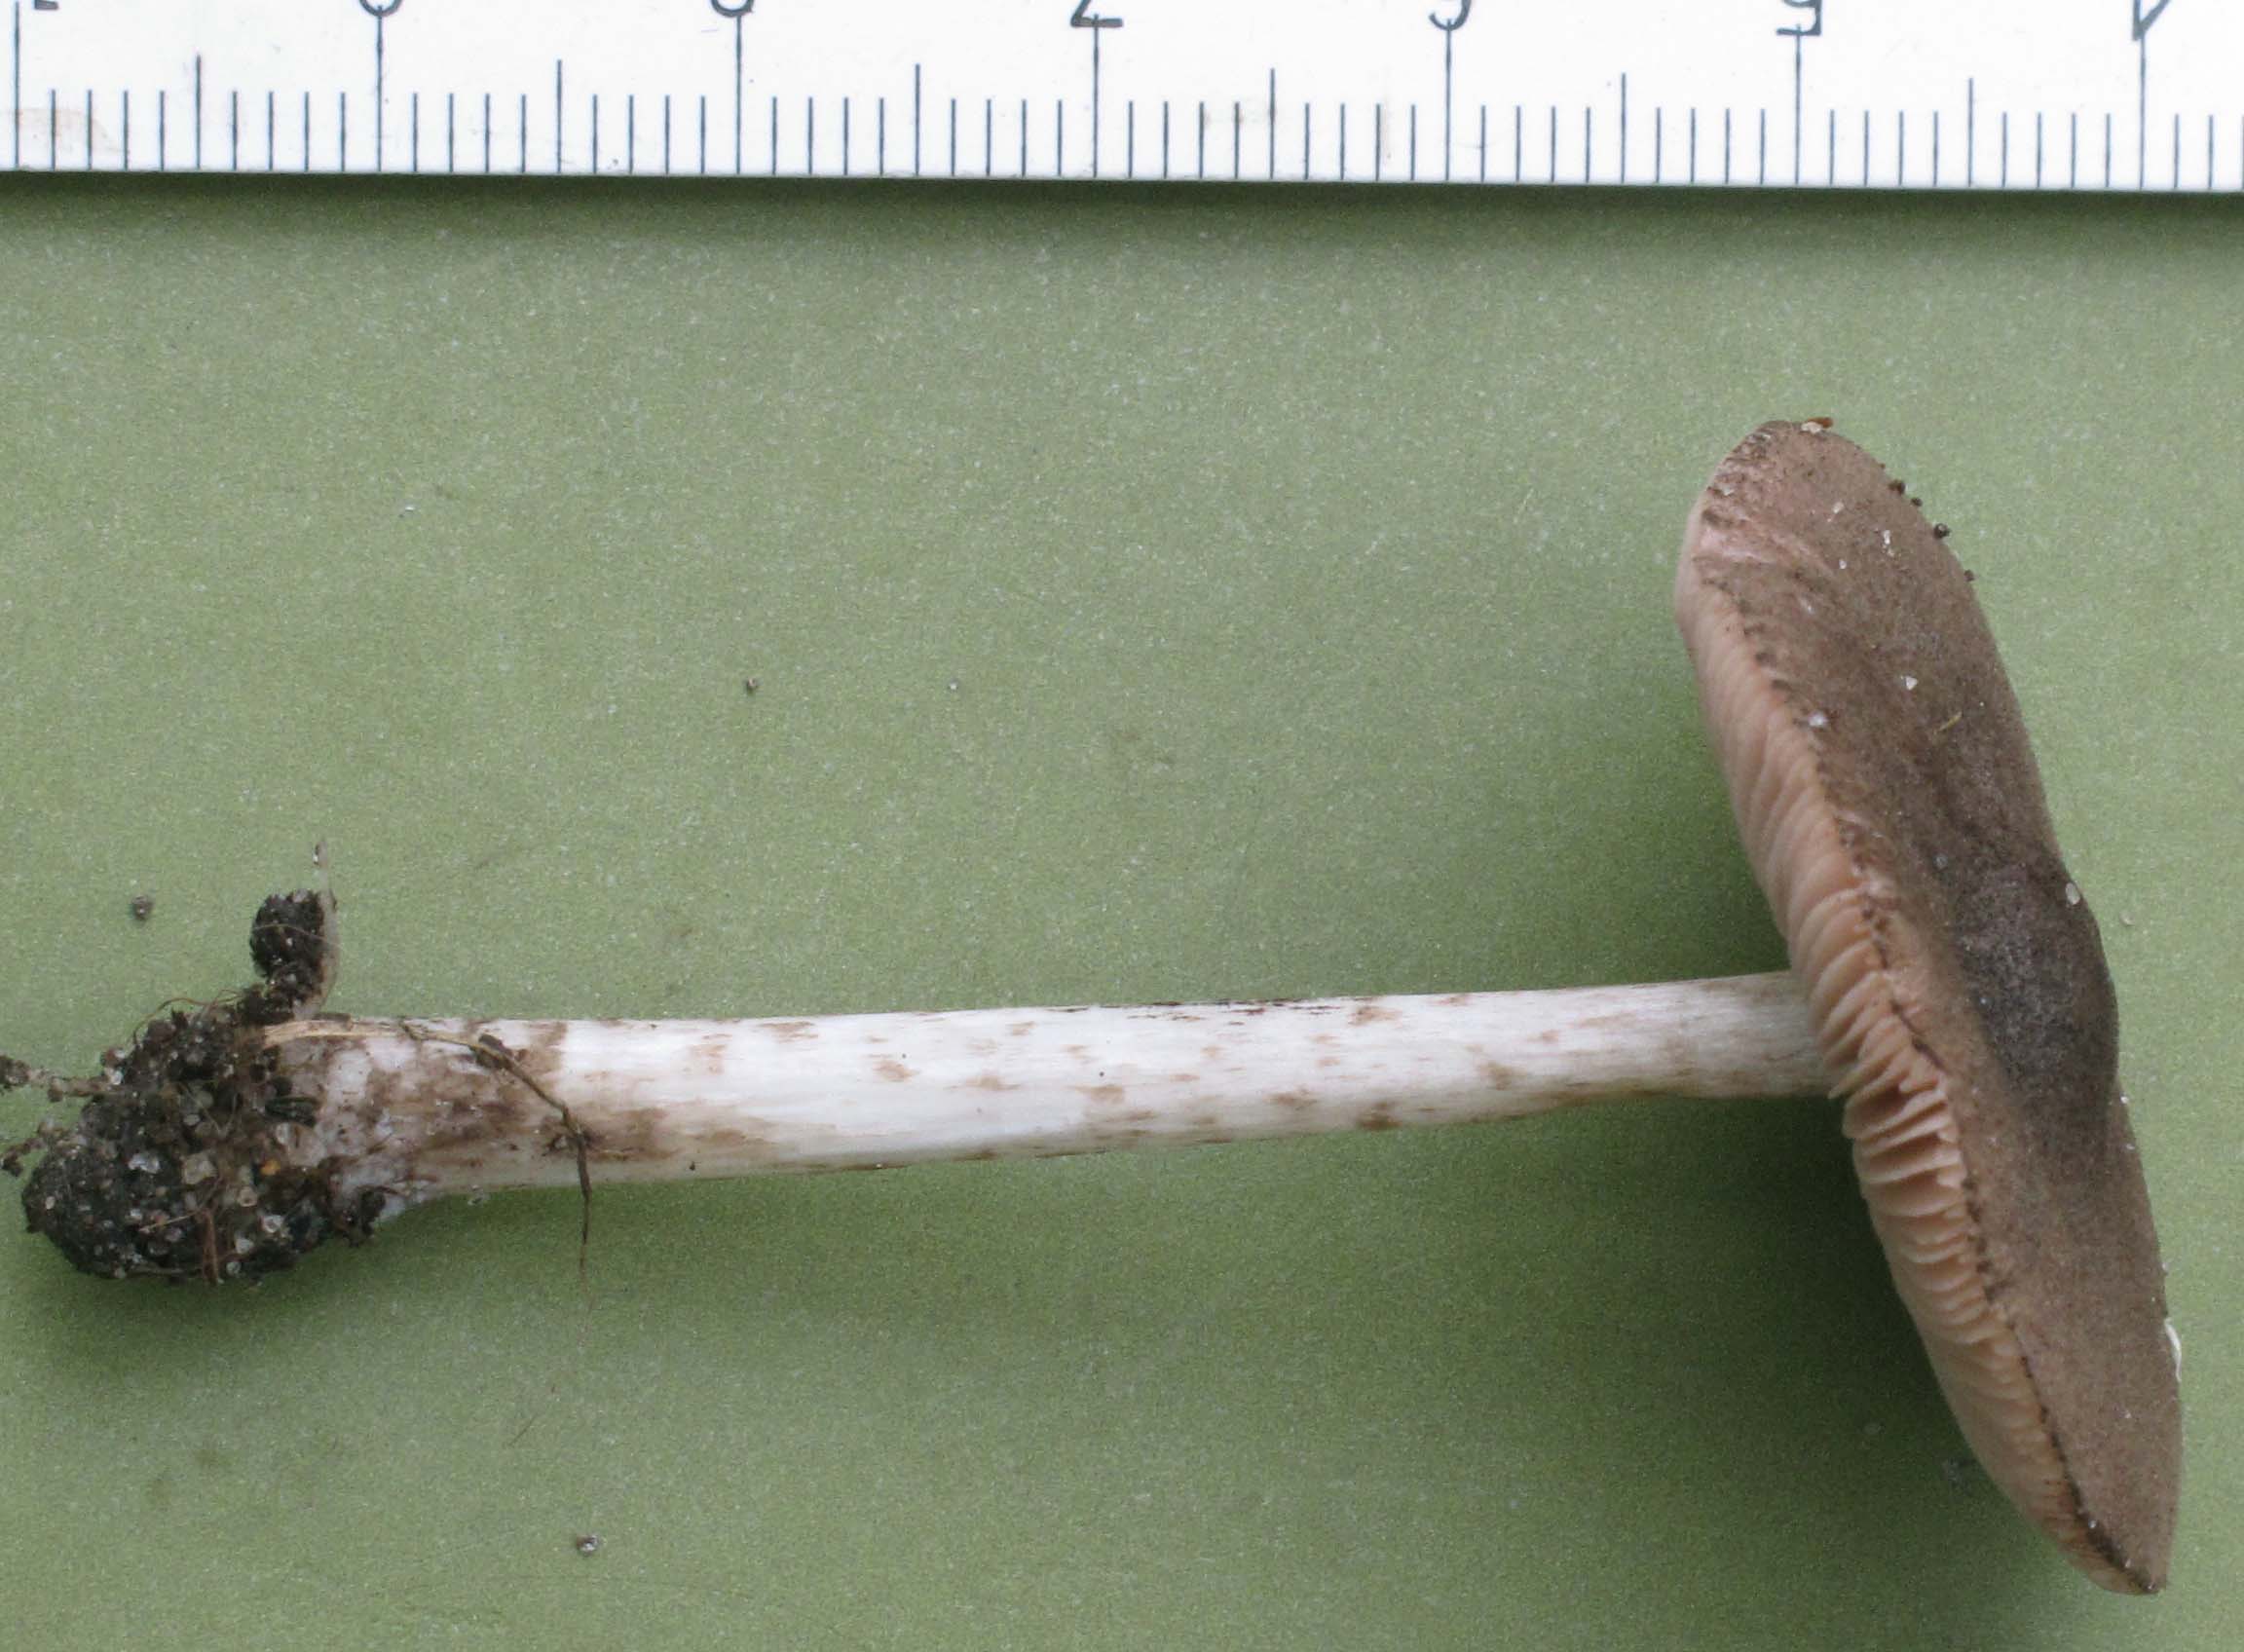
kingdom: Fungi
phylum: Basidiomycota
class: Agaricomycetes
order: Agaricales
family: Pluteaceae
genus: Pluteus
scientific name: Pluteus
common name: gråfibret skærmhat
